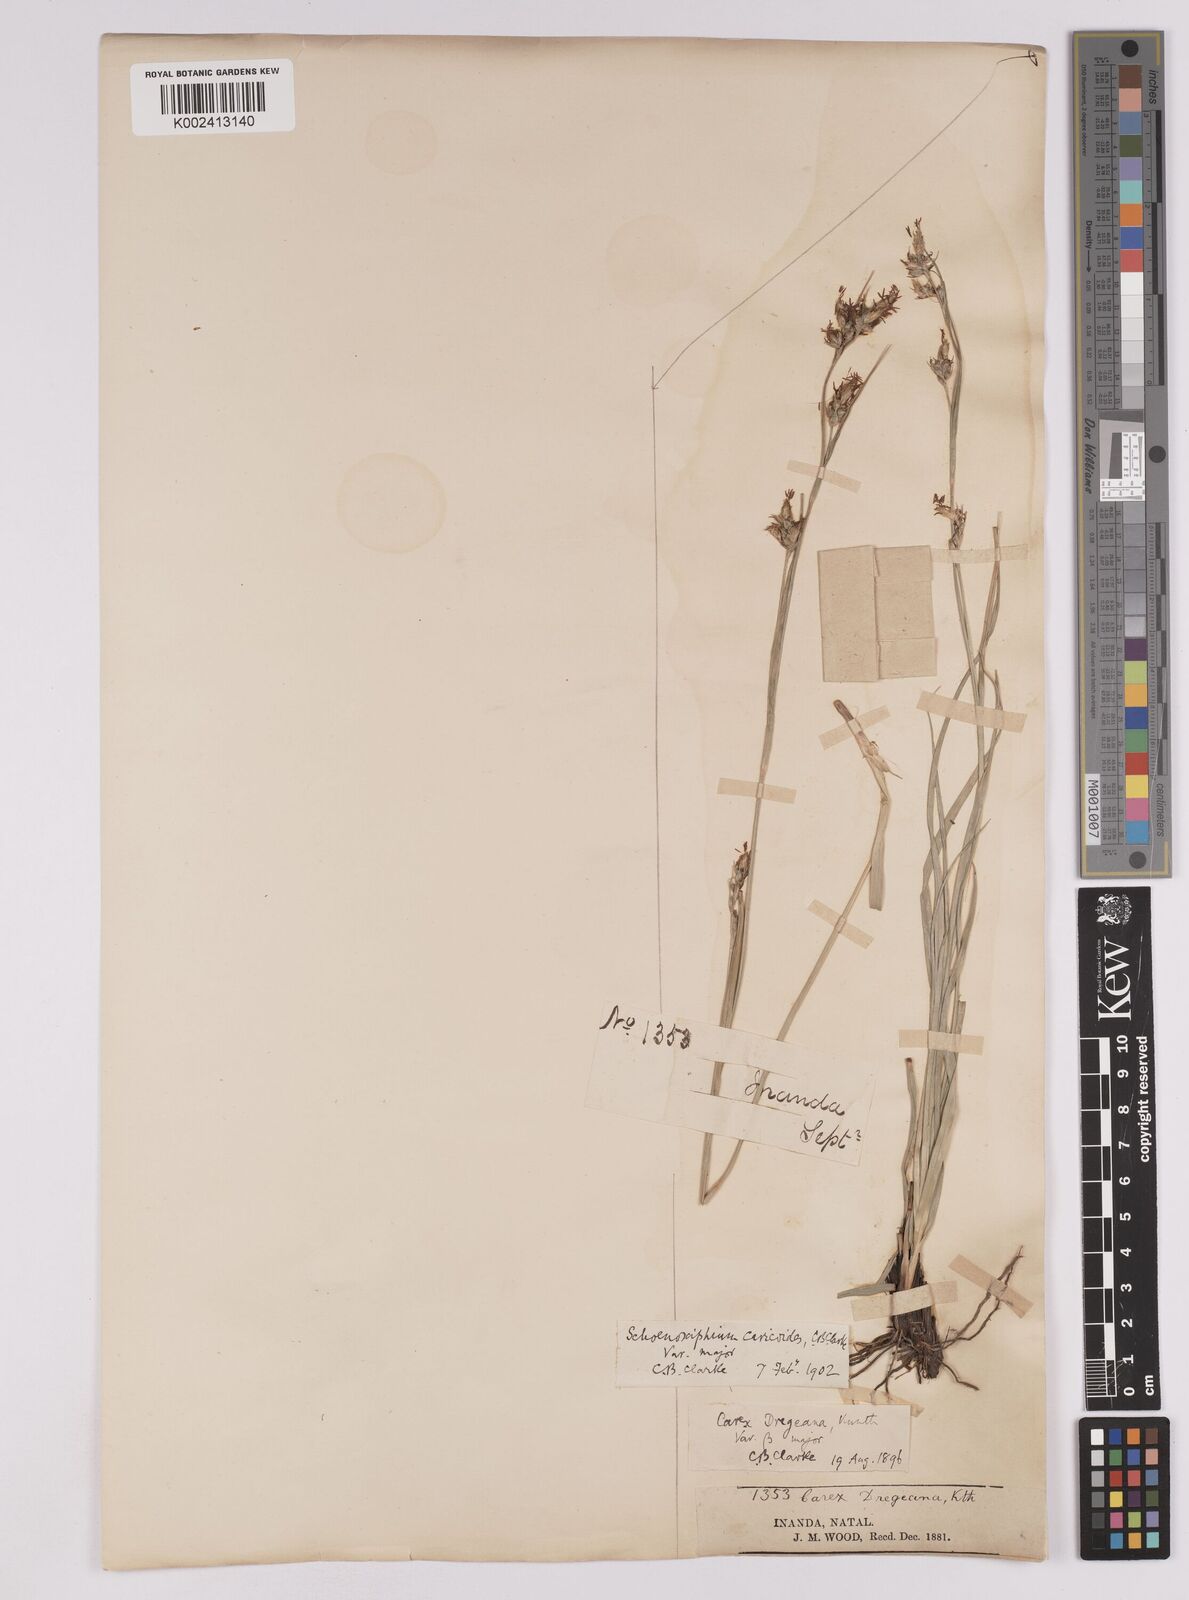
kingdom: Plantae
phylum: Tracheophyta
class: Liliopsida
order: Poales
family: Cyperaceae
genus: Carex
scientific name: Carex spartea
